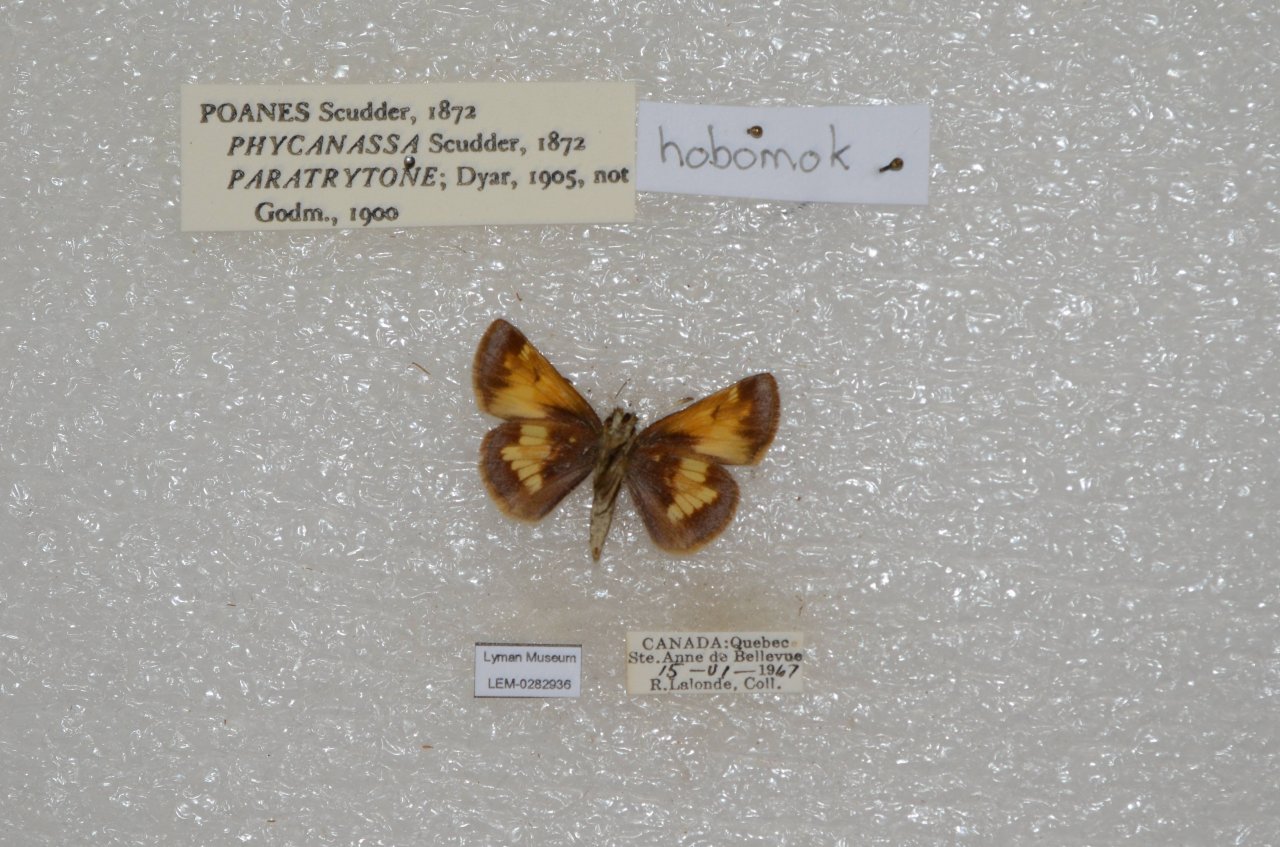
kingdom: Animalia
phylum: Arthropoda
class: Insecta
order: Lepidoptera
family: Hesperiidae
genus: Lon
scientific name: Lon hobomok
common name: Hobomok Skipper
